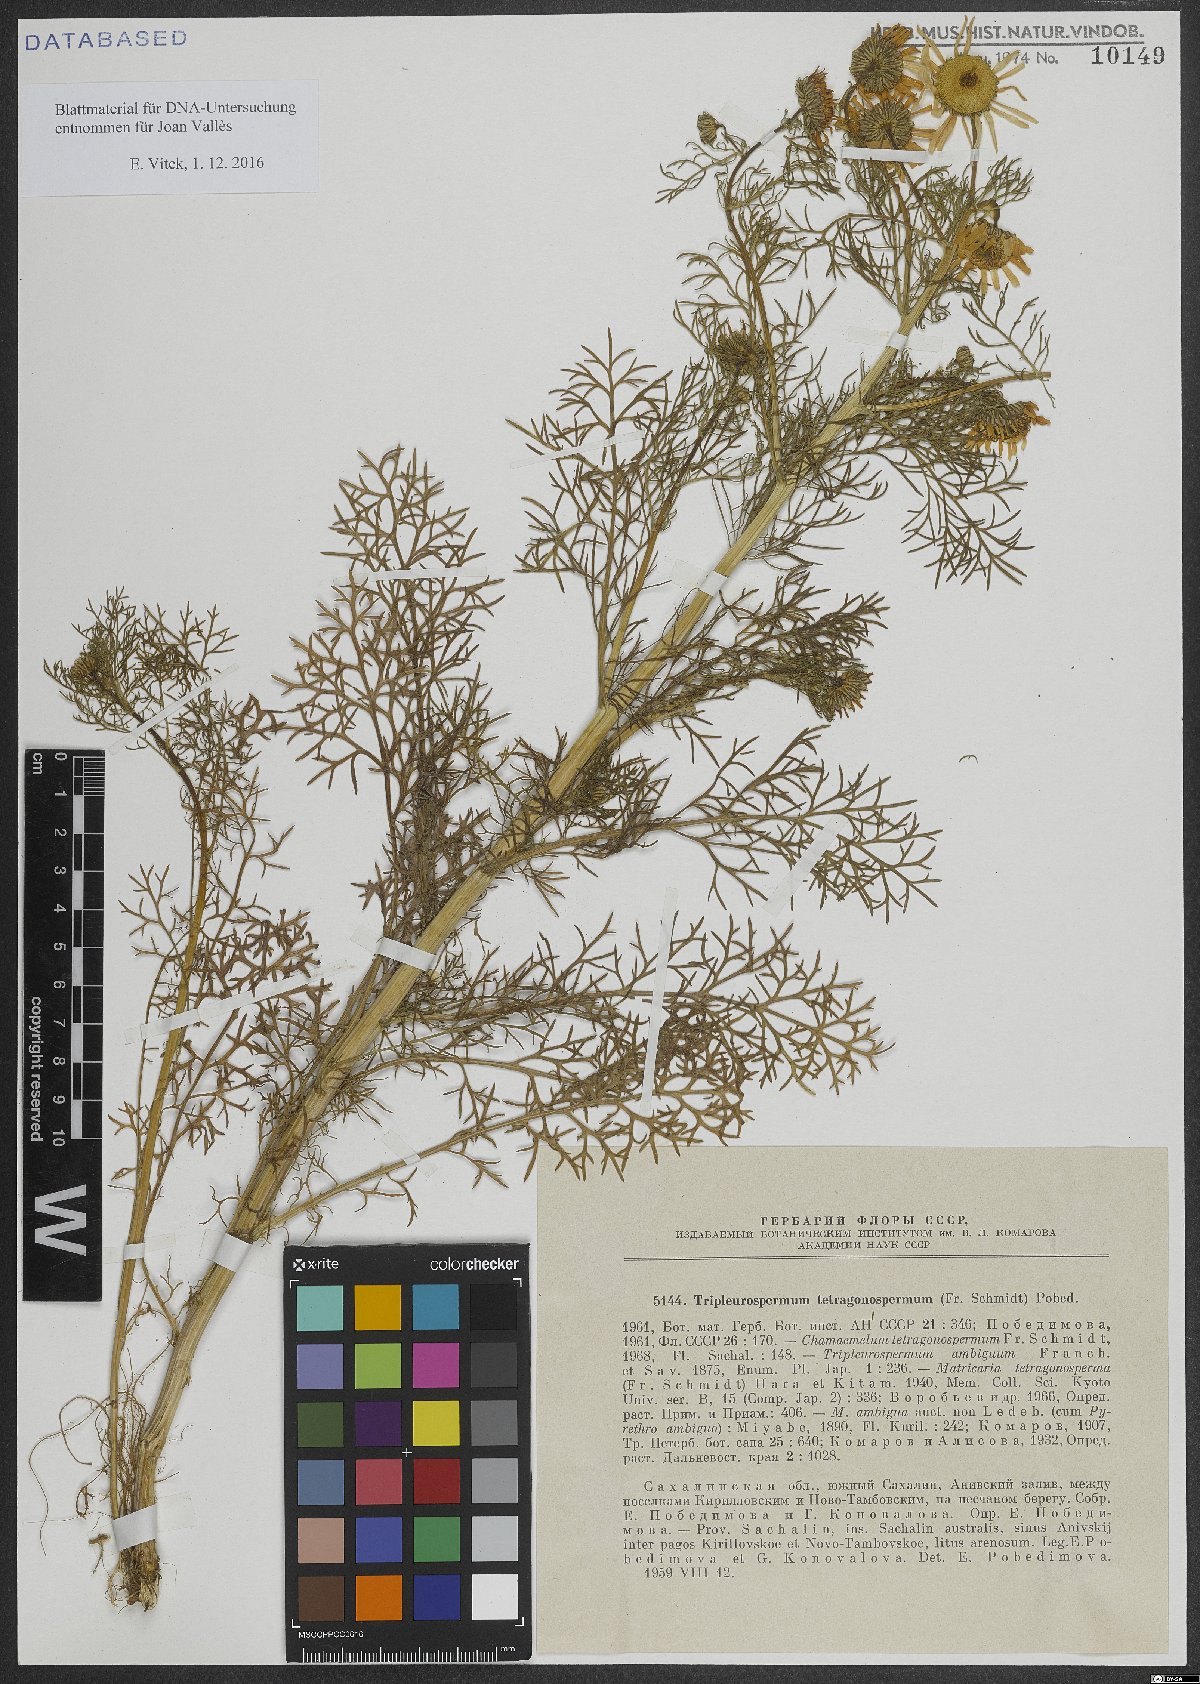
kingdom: Plantae
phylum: Tracheophyta
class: Magnoliopsida
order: Asterales
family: Asteraceae
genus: Tripleurospermum
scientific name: Tripleurospermum tetragonospermum
